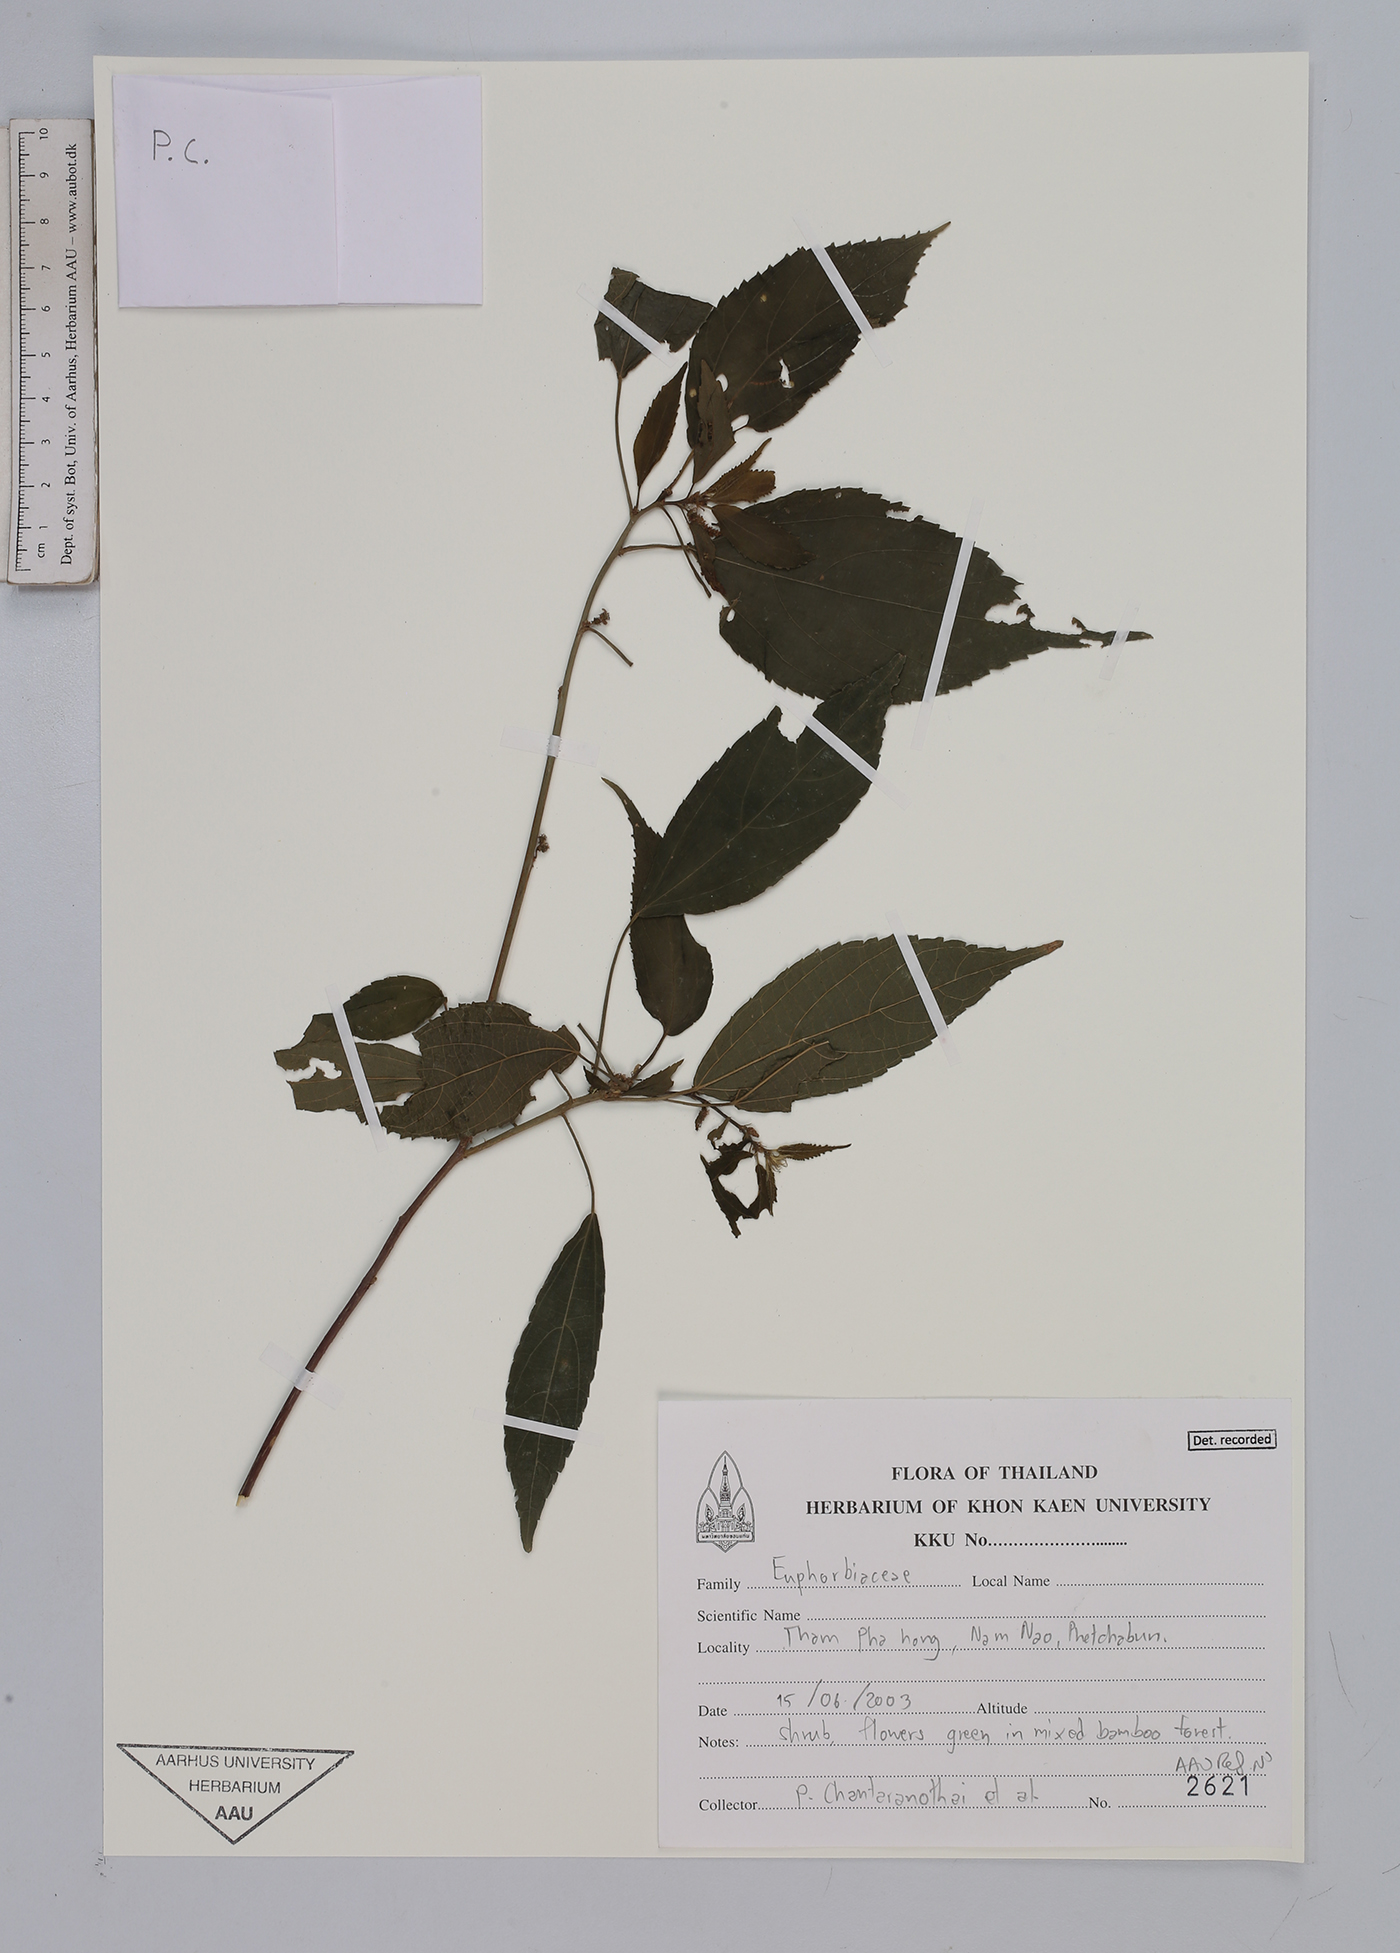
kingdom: Plantae
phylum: Tracheophyta
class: Magnoliopsida
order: Malpighiales
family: Euphorbiaceae
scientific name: Euphorbiaceae
